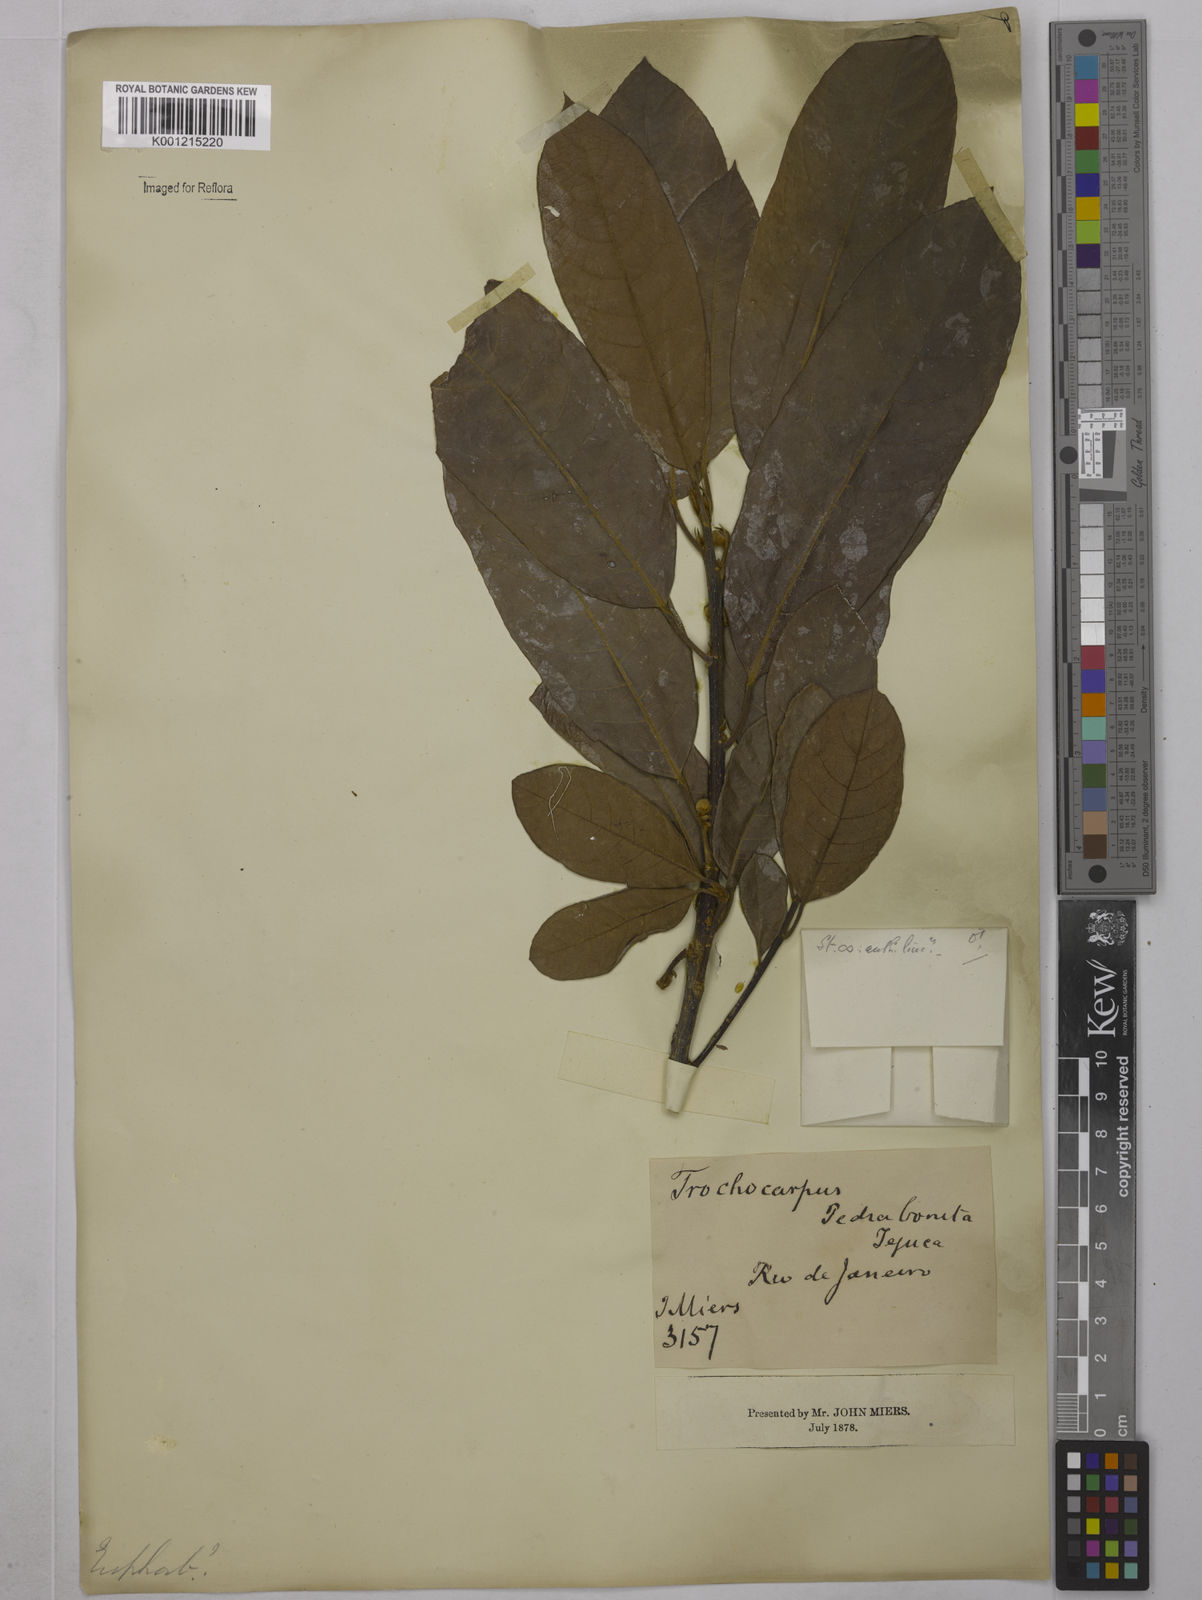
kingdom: Plantae
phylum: Tracheophyta
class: Magnoliopsida
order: Malpighiales
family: Achariaceae
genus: Carpotroche
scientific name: Carpotroche
